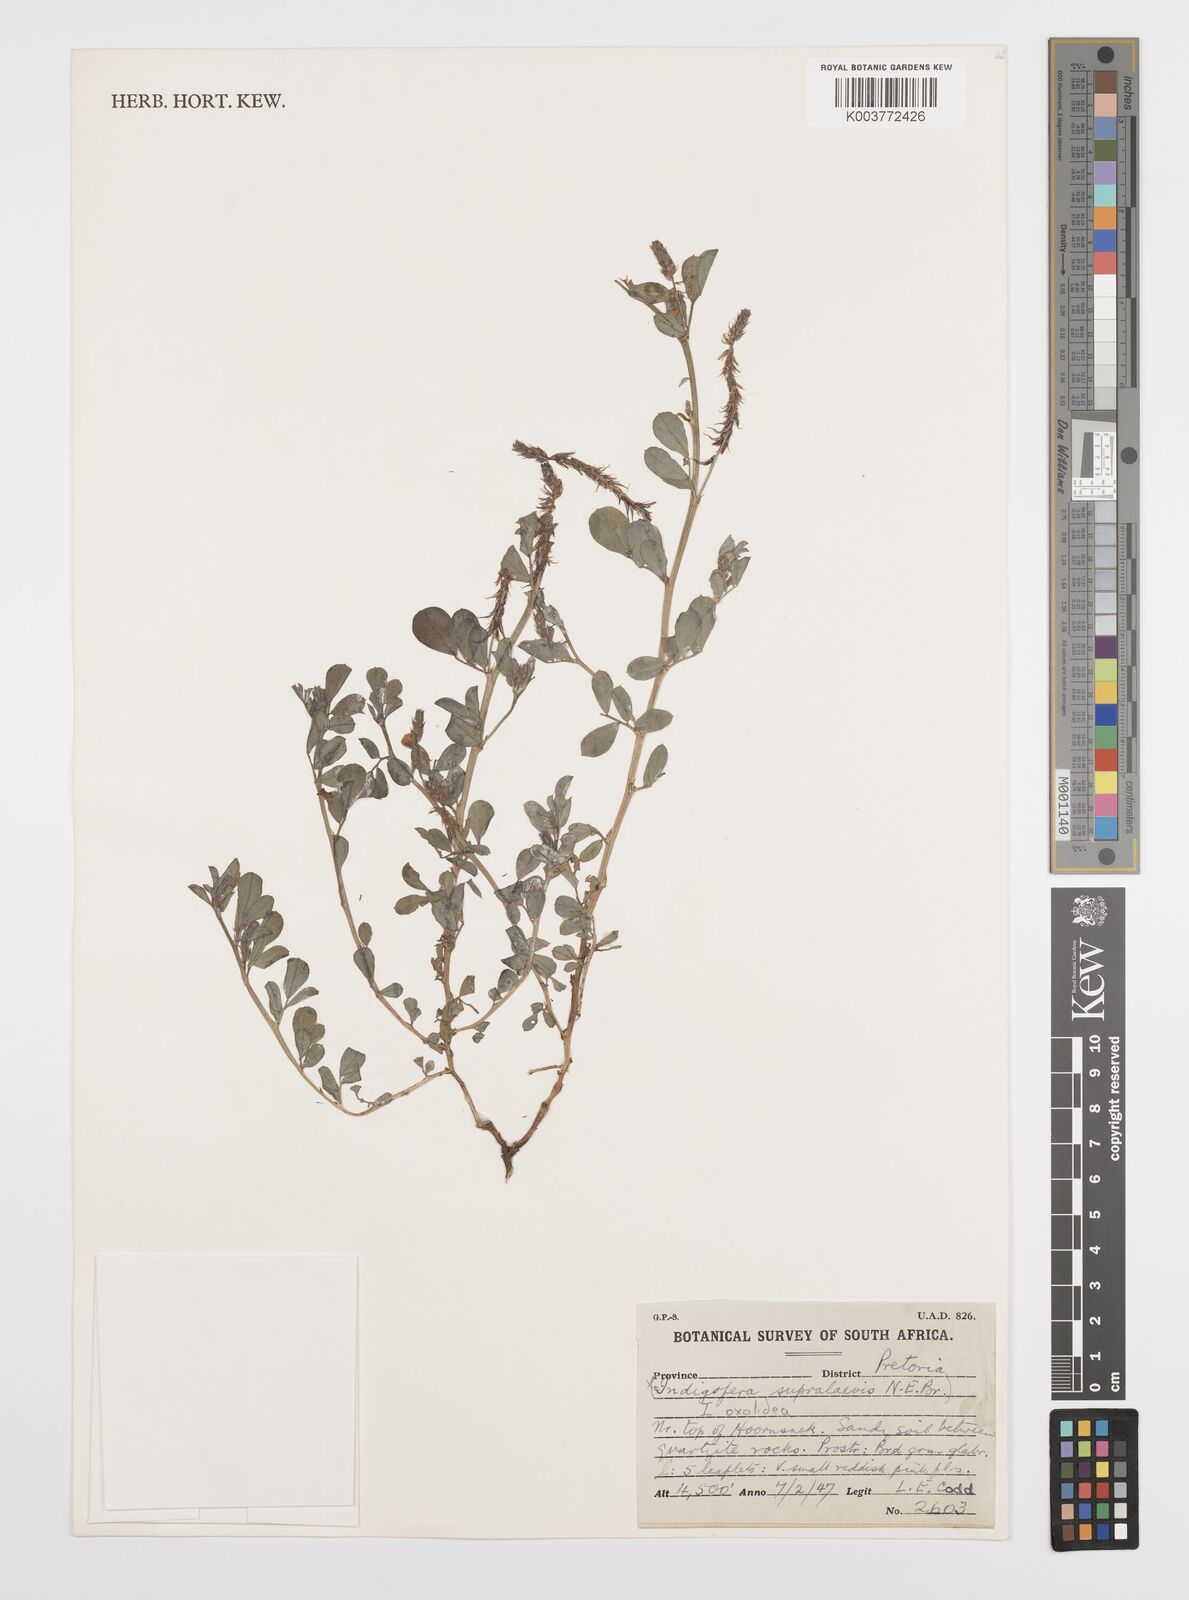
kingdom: Plantae
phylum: Tracheophyta
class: Magnoliopsida
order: Fabales
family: Fabaceae
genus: Indigofera
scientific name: Indigofera oxalidea
